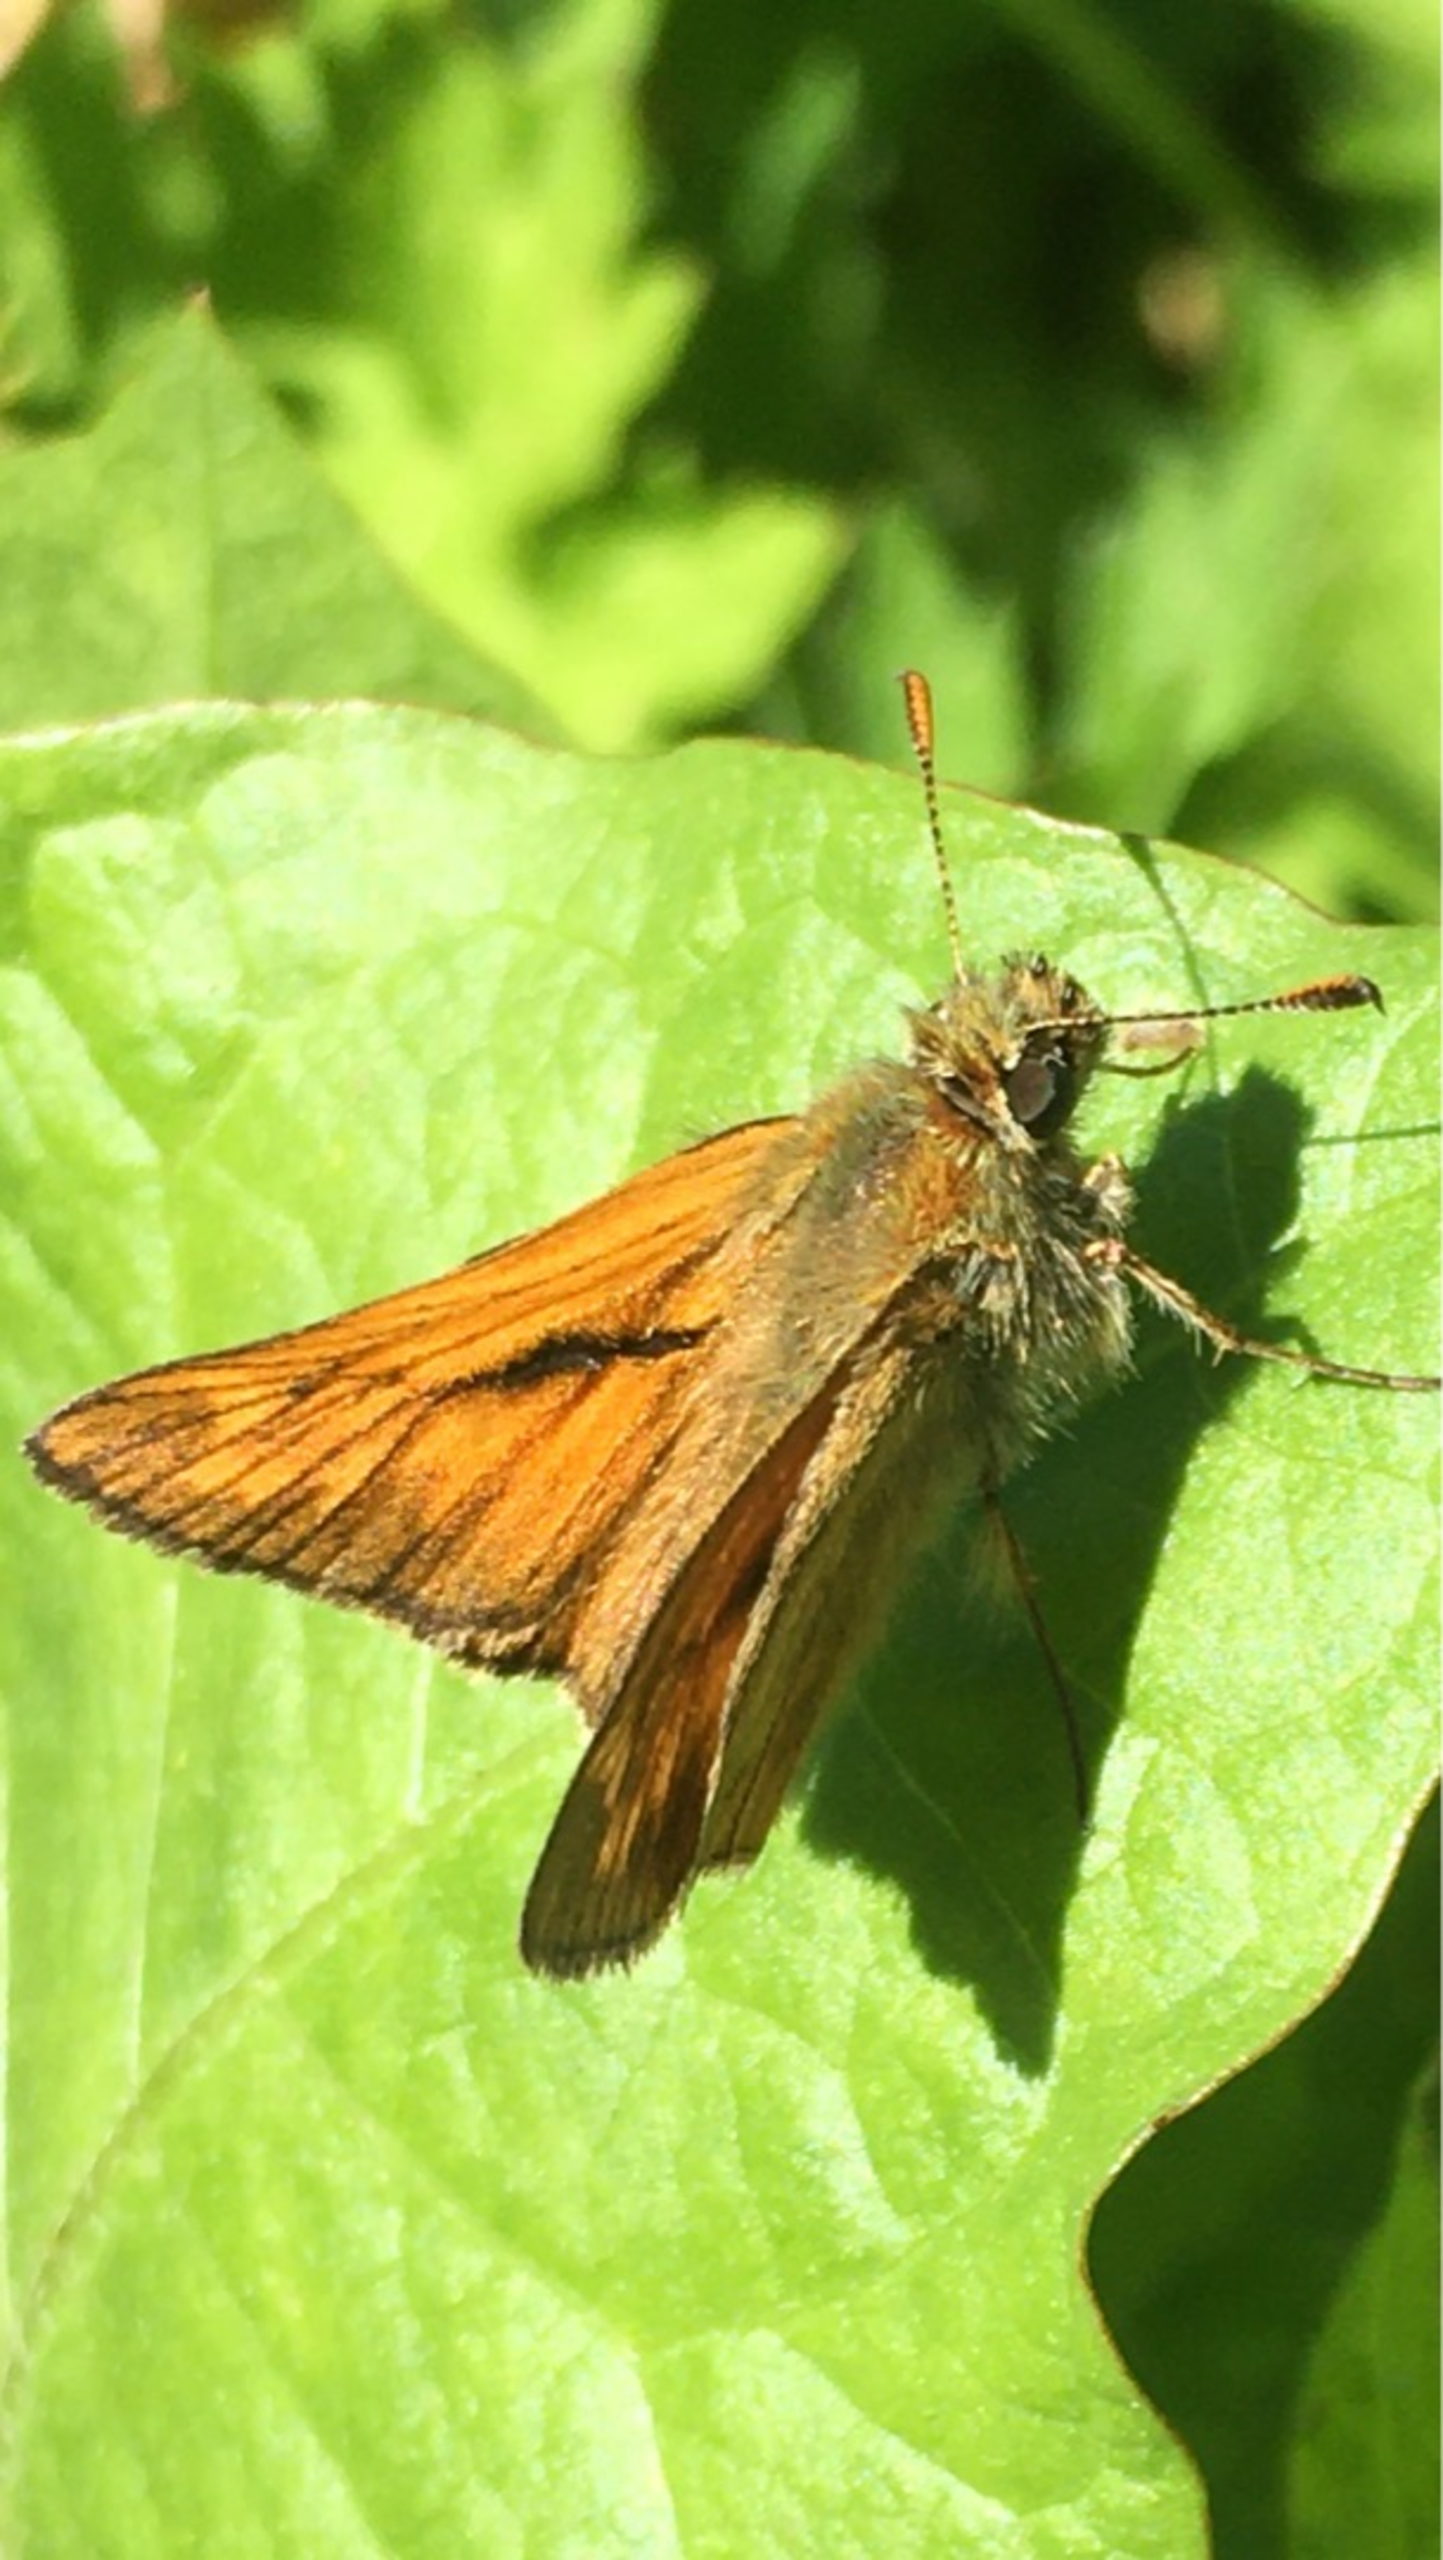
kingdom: Animalia
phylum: Arthropoda
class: Insecta
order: Lepidoptera
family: Hesperiidae
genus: Ochlodes
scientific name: Ochlodes venata
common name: Stor bredpande
